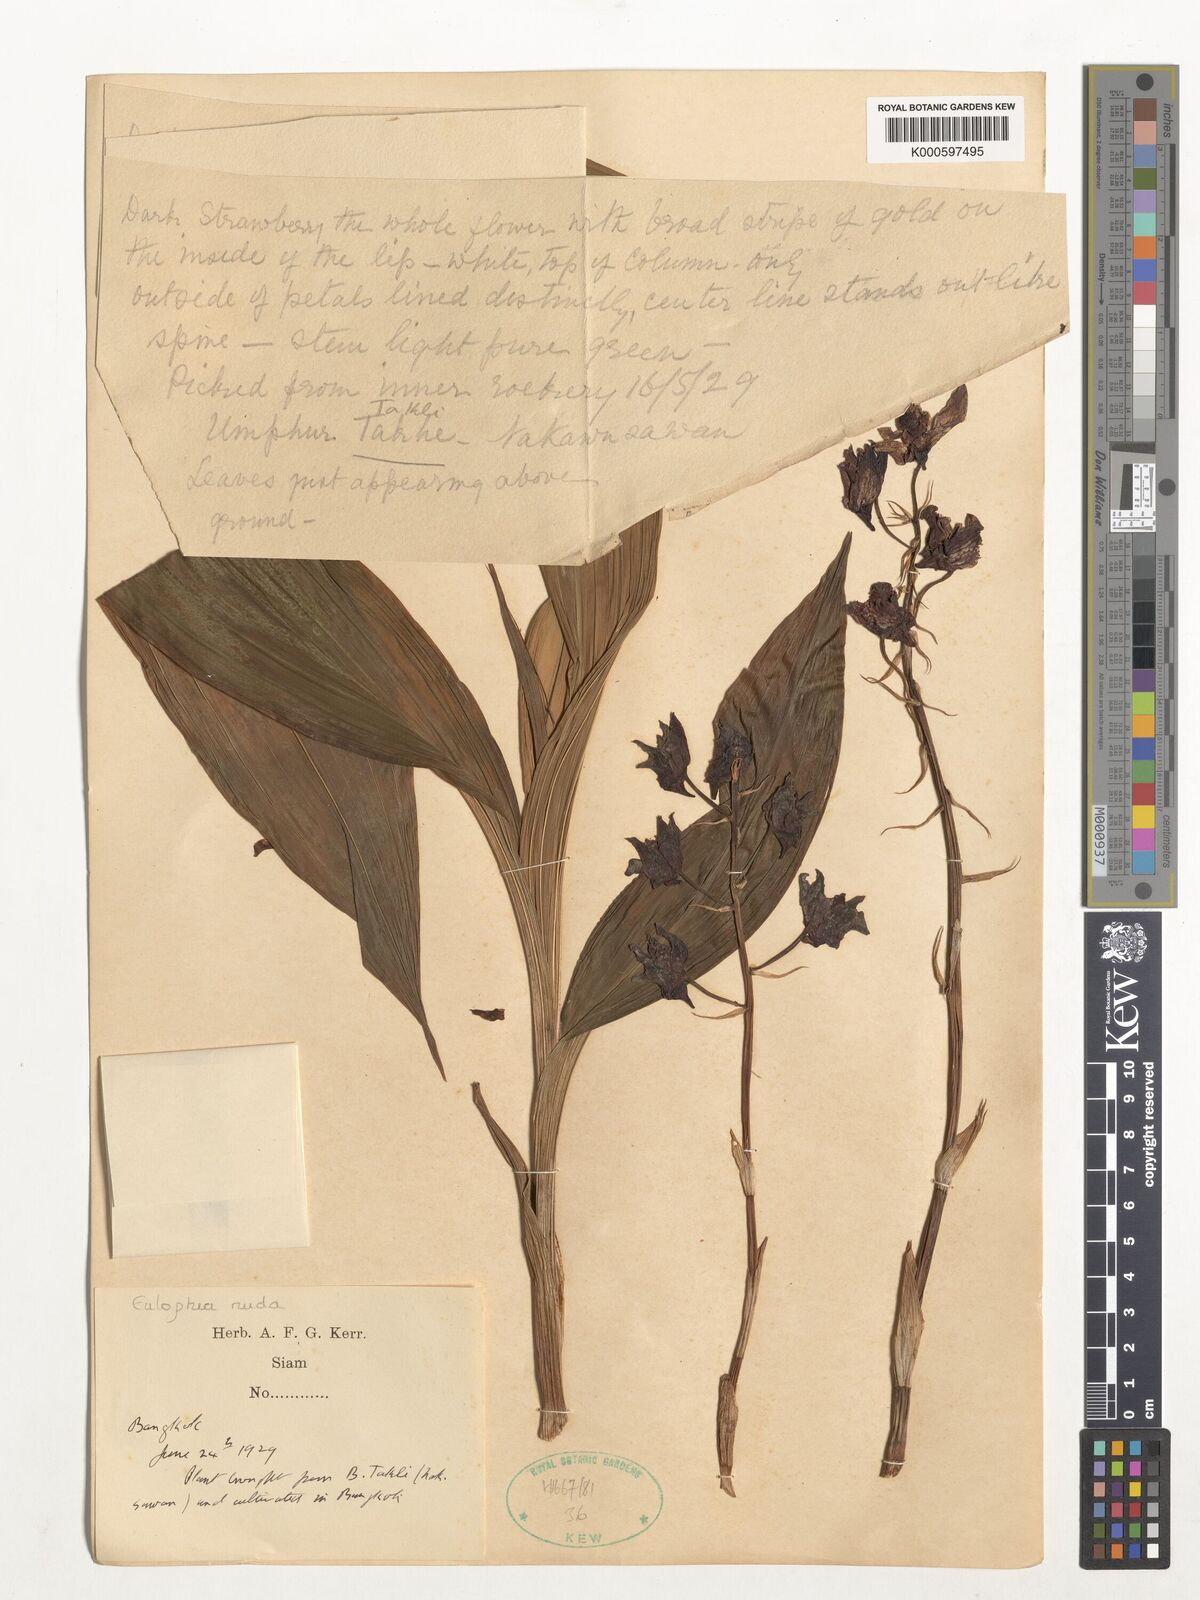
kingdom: Plantae
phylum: Tracheophyta
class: Liliopsida
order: Asparagales
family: Orchidaceae
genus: Eulophia
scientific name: Eulophia nuda
